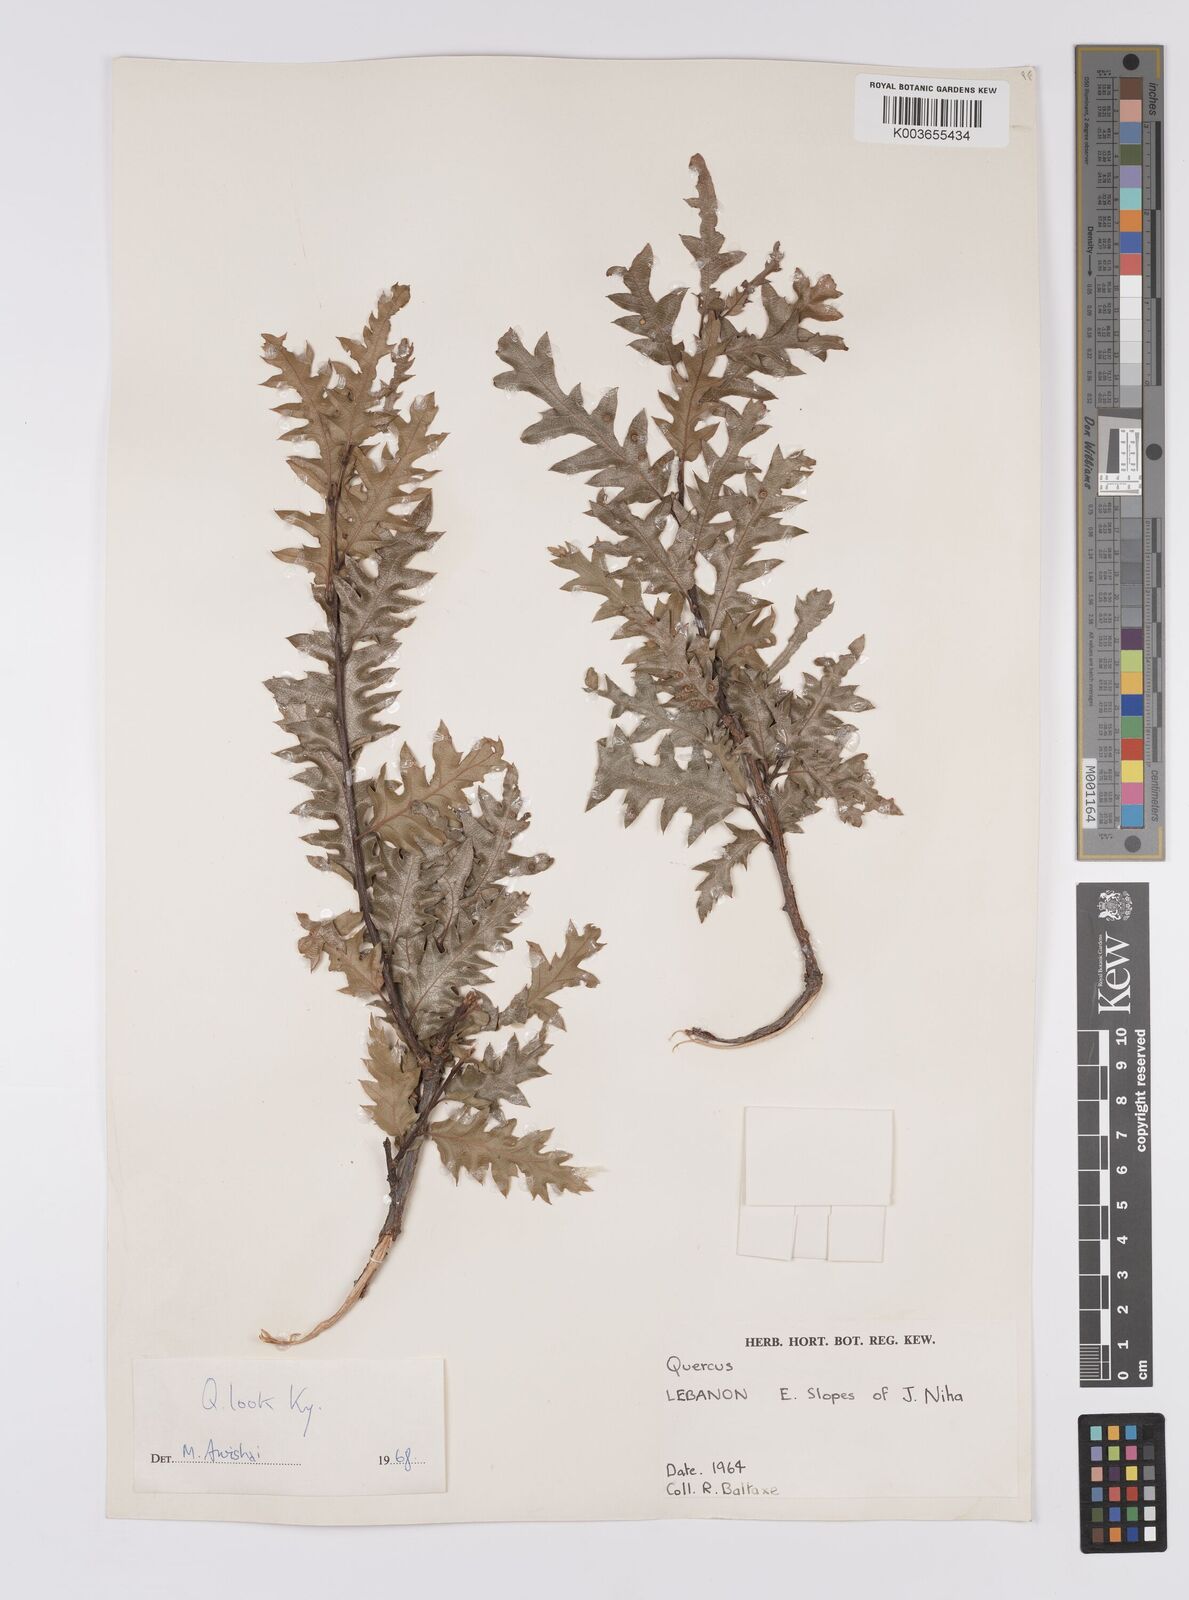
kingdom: Plantae
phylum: Tracheophyta
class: Magnoliopsida
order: Fagales
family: Fagaceae
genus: Quercus
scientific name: Quercus look
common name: Look oak
